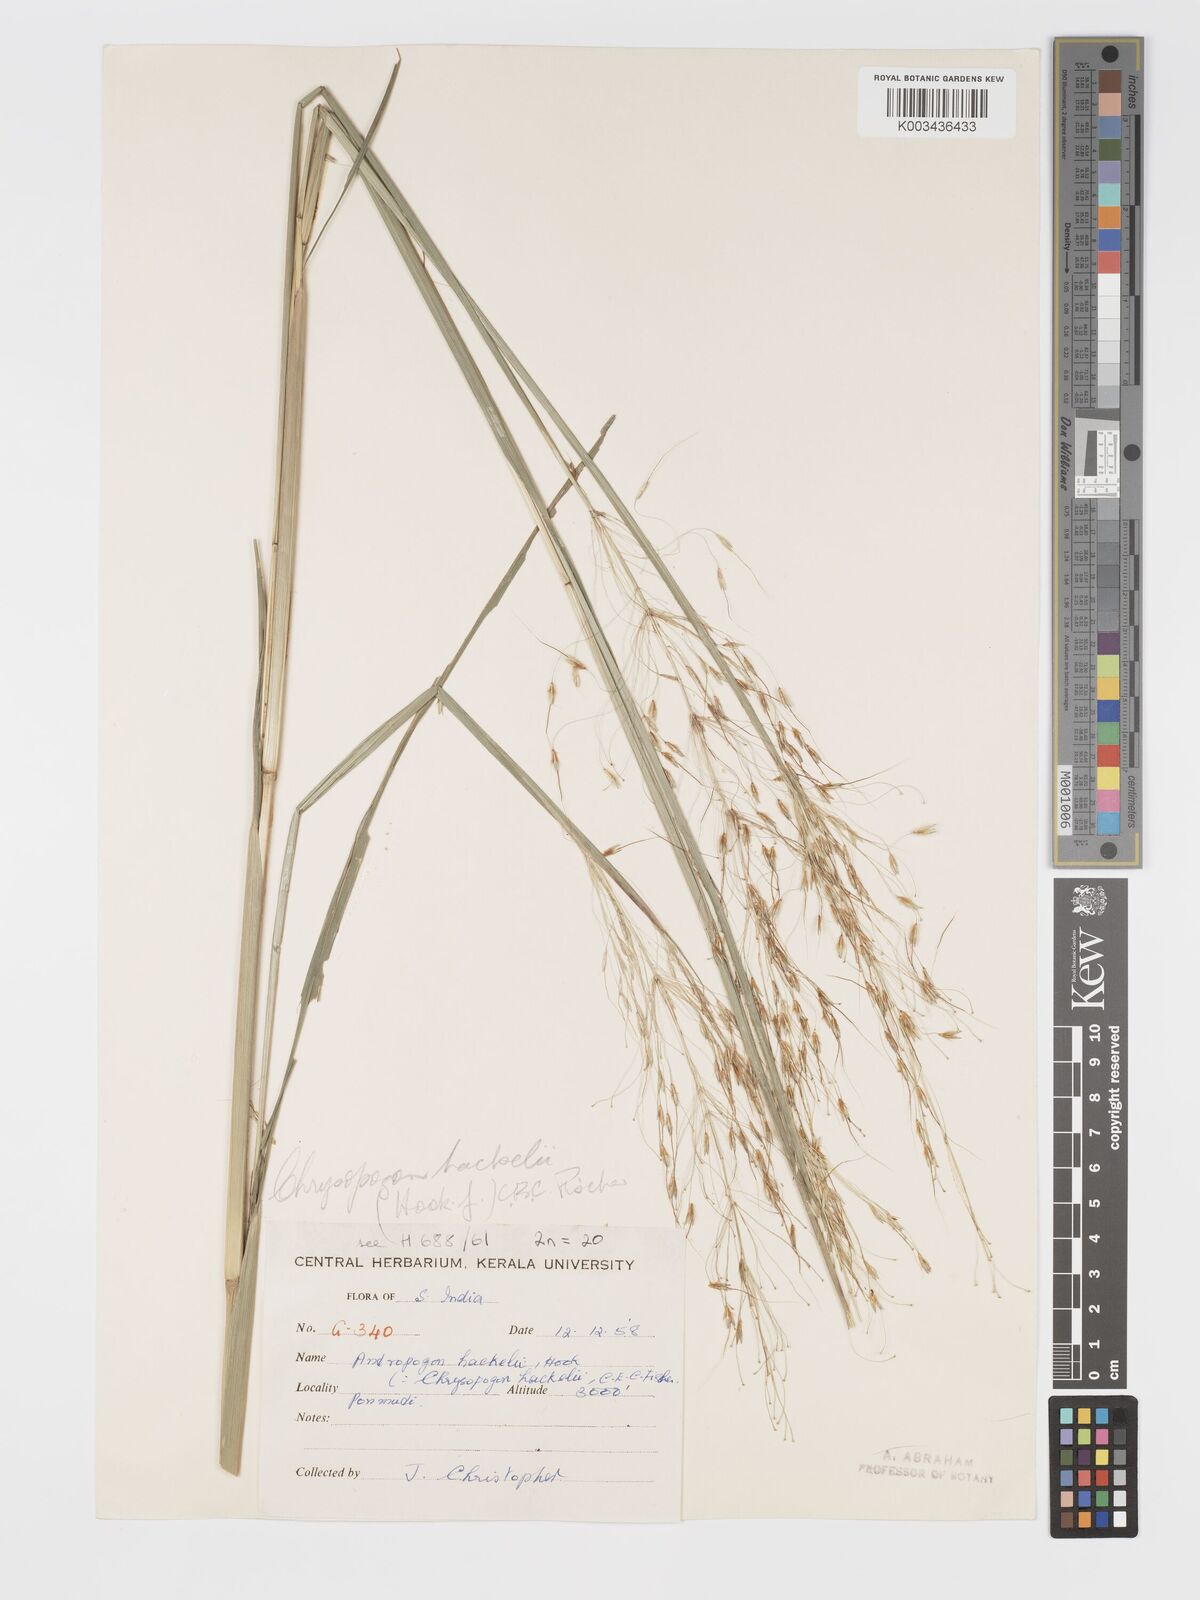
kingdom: Plantae
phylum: Tracheophyta
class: Liliopsida
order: Poales
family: Poaceae
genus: Chrysopogon
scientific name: Chrysopogon hackelii
